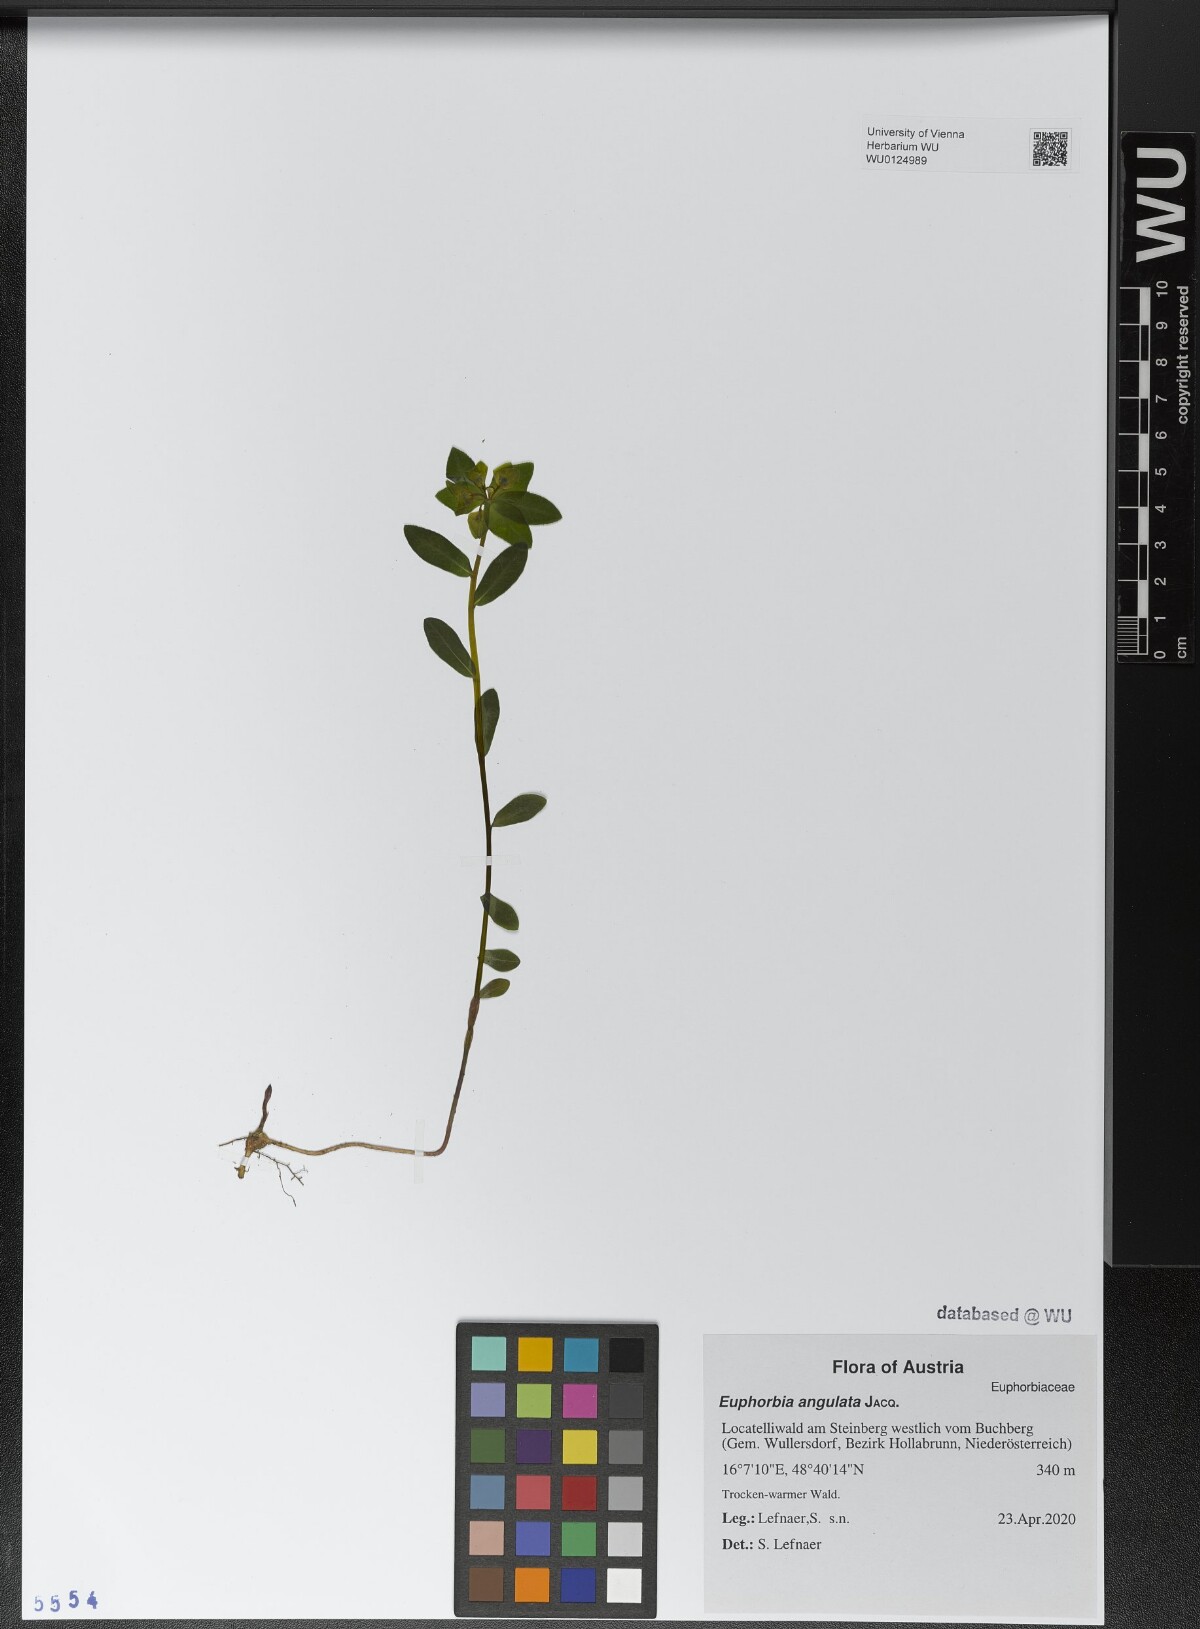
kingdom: Plantae
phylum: Tracheophyta
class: Magnoliopsida
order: Malpighiales
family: Euphorbiaceae
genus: Euphorbia
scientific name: Euphorbia angulata
